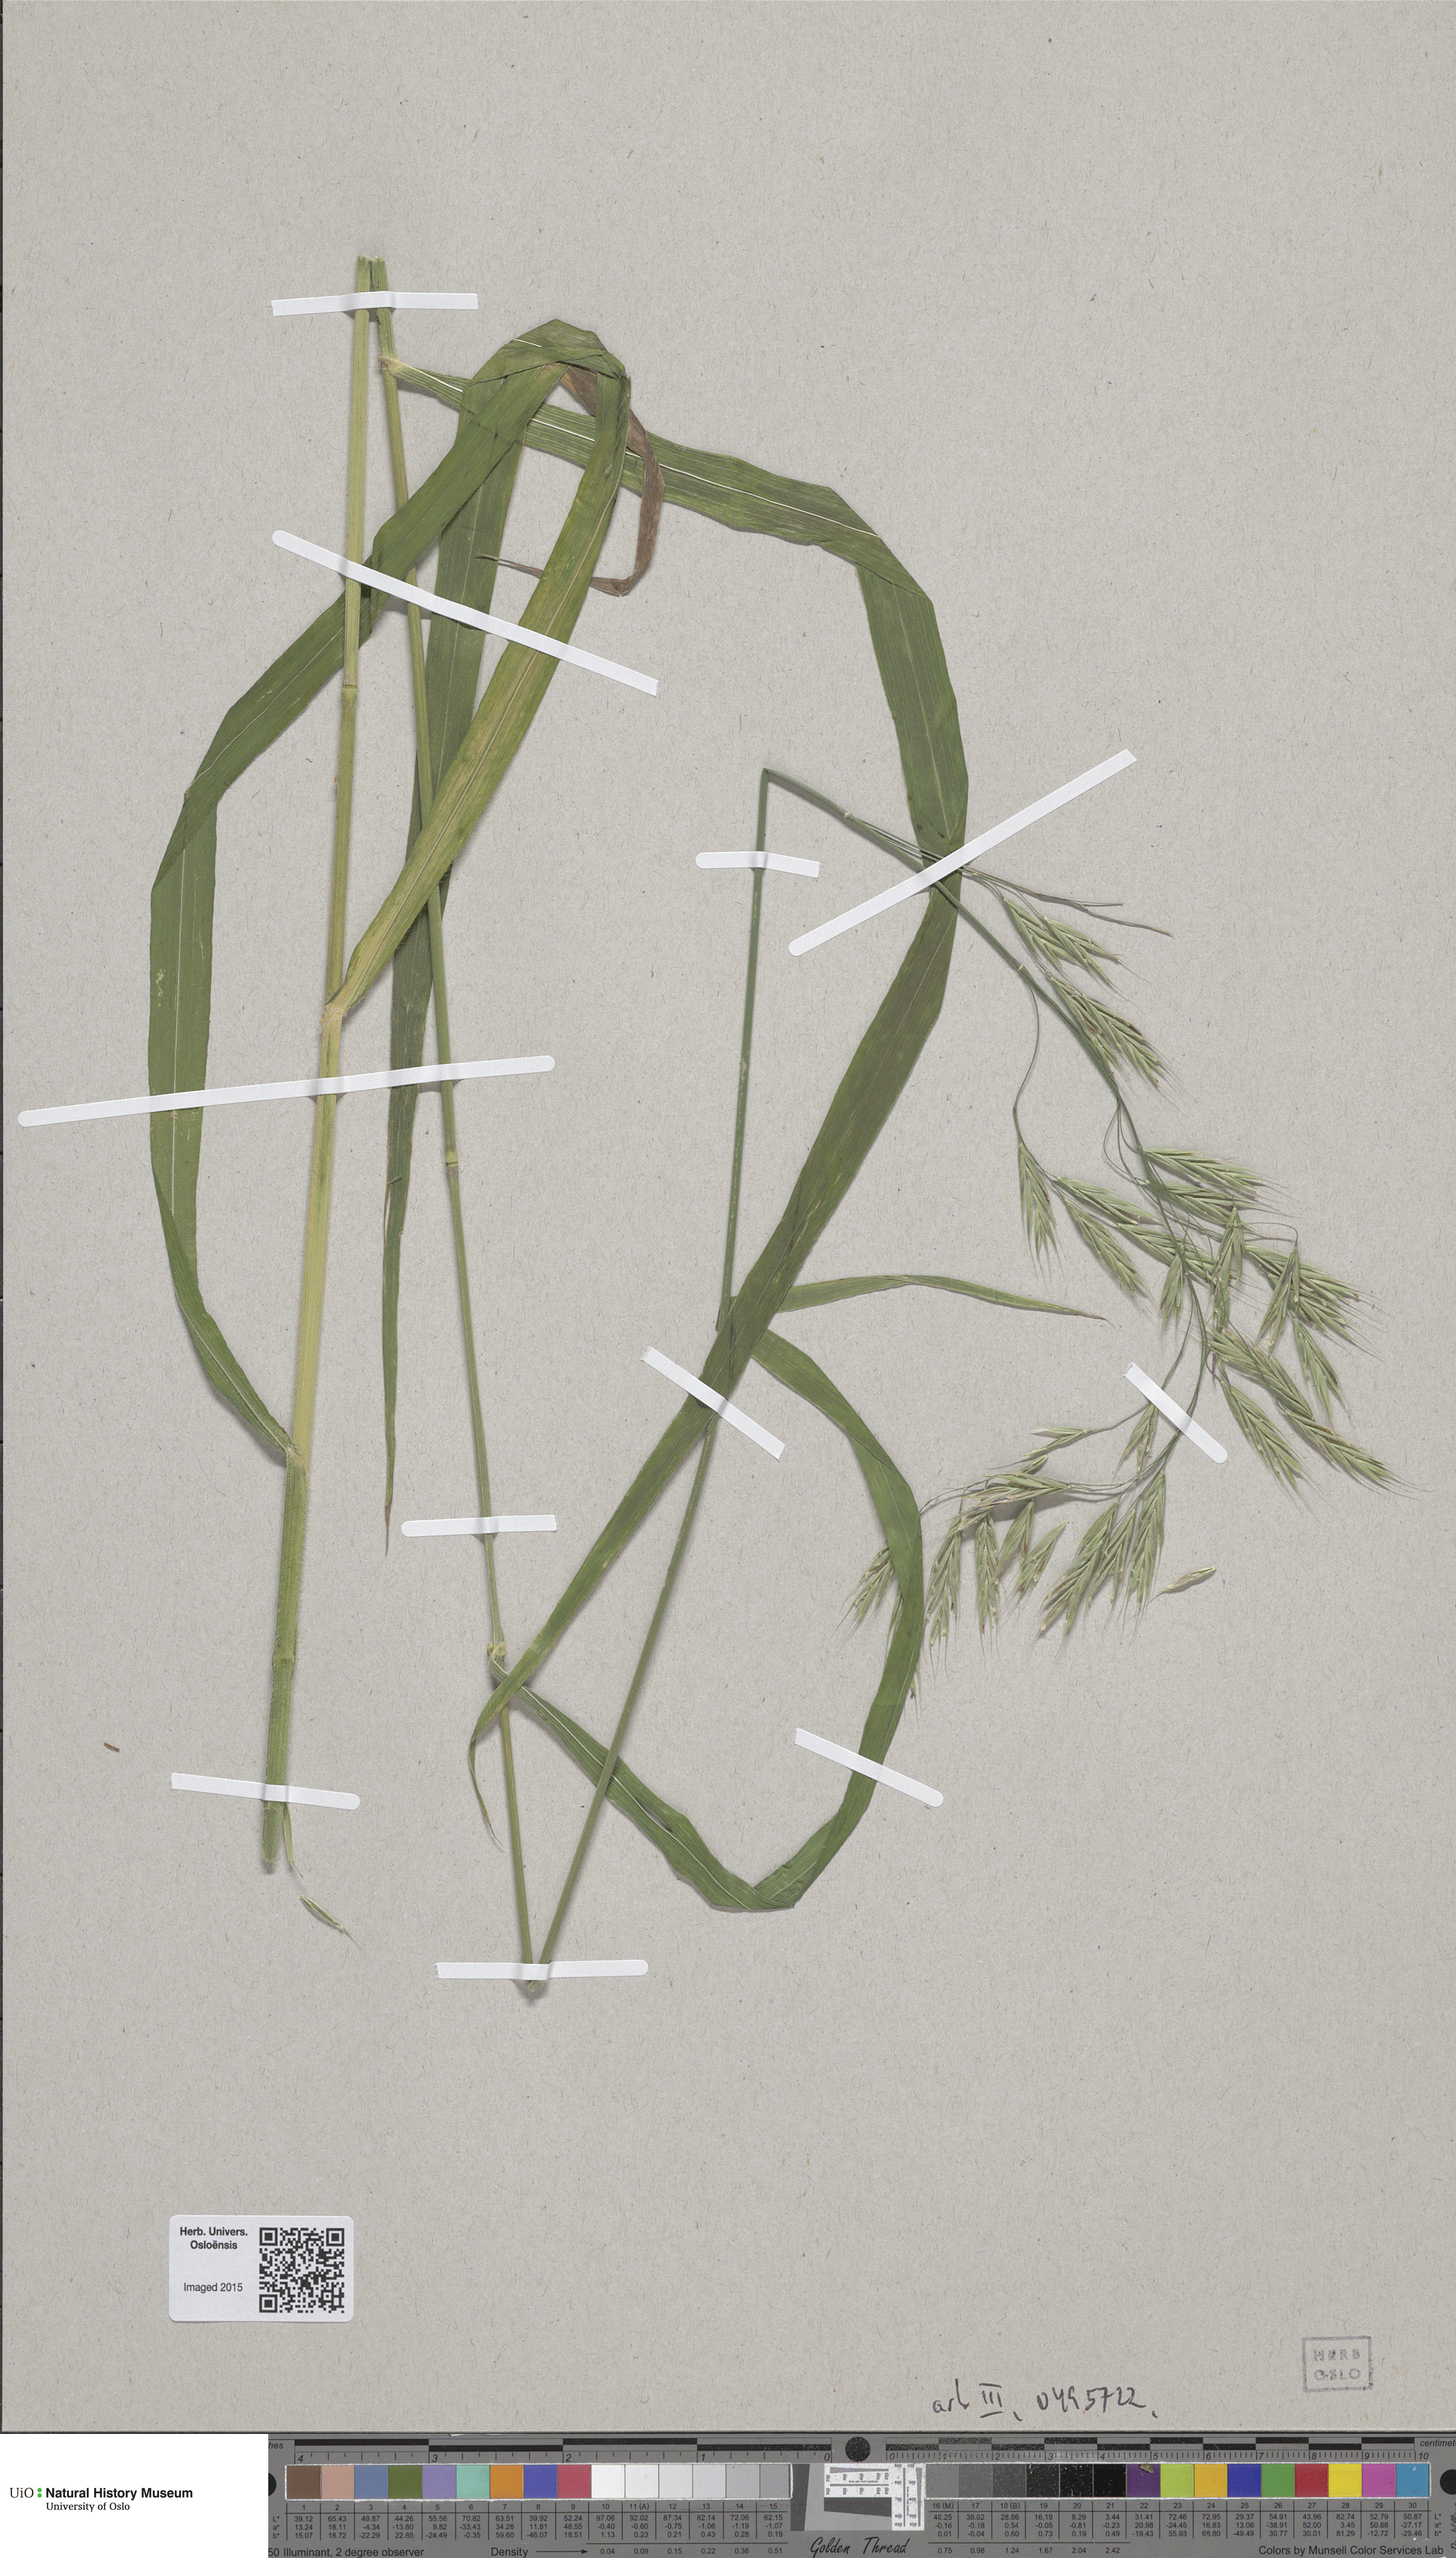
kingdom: Plantae
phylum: Tracheophyta
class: Liliopsida
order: Poales
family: Poaceae
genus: Bromus
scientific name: Bromus benekenii
